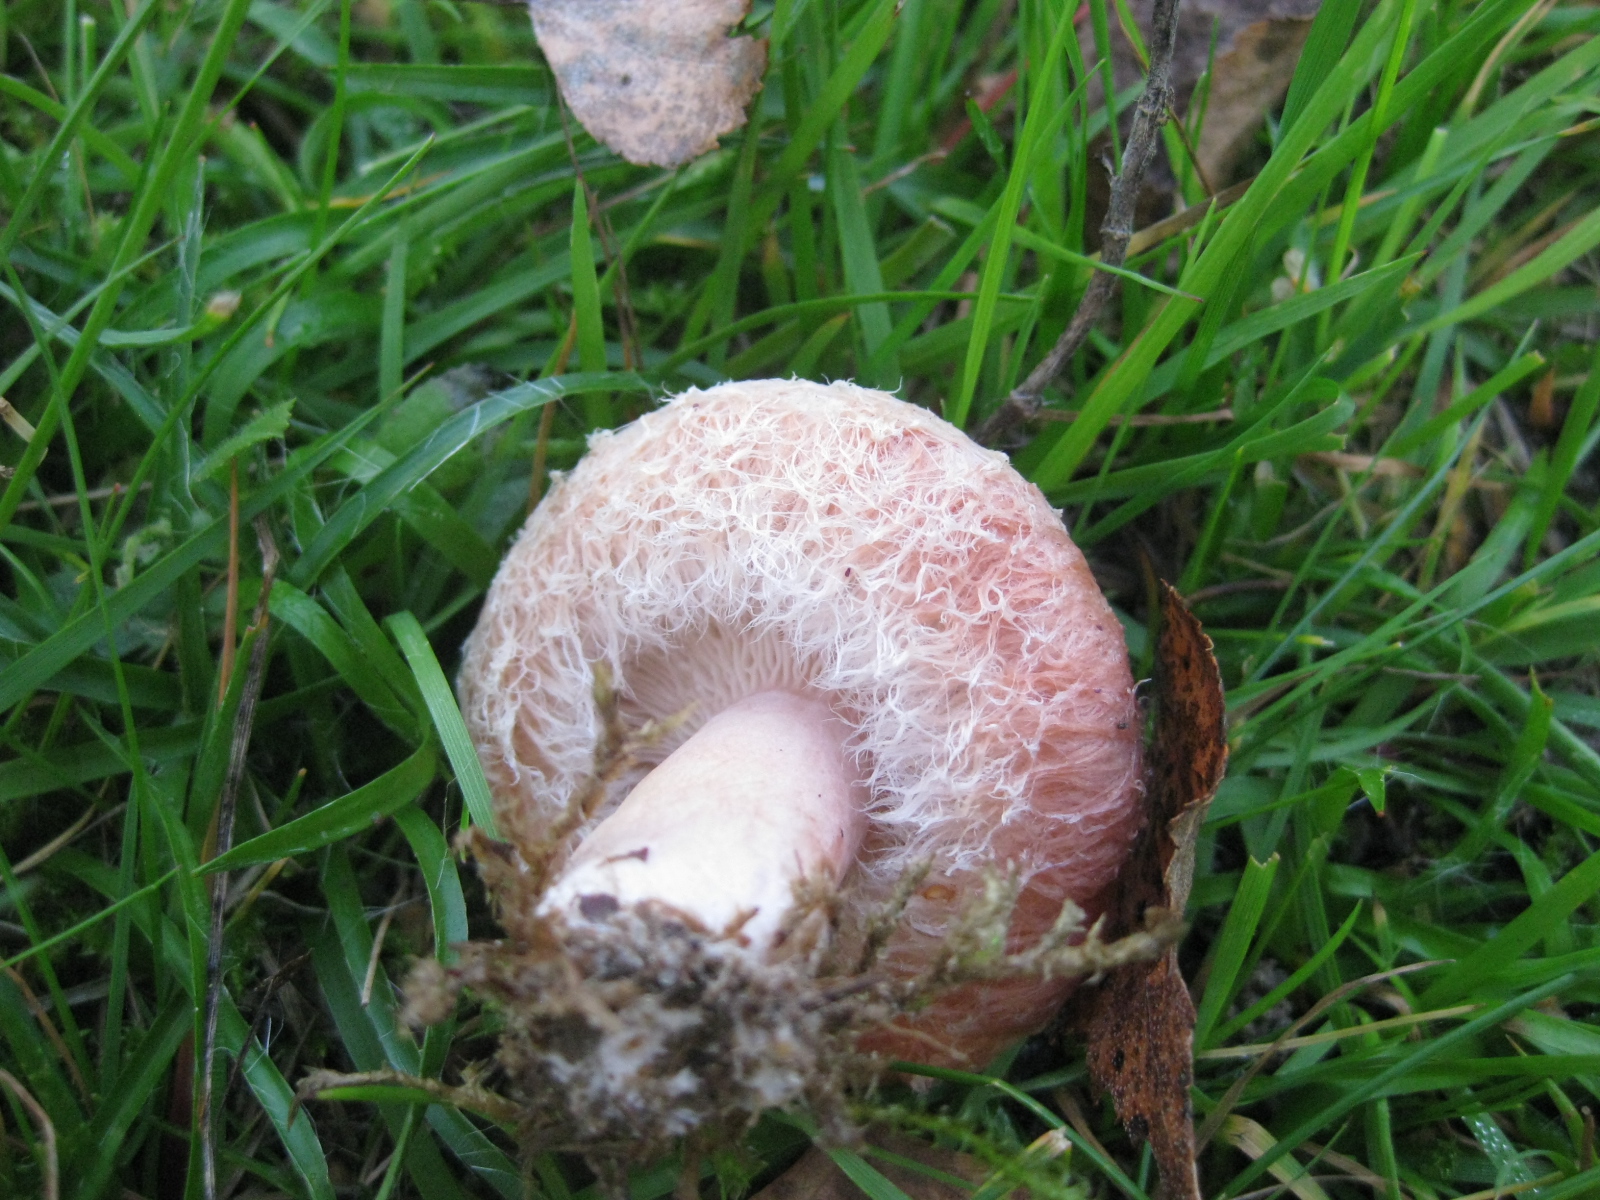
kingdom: Fungi
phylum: Basidiomycota
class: Agaricomycetes
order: Russulales
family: Russulaceae
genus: Lactarius
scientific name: Lactarius torminosus
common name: skægget mælkehat
